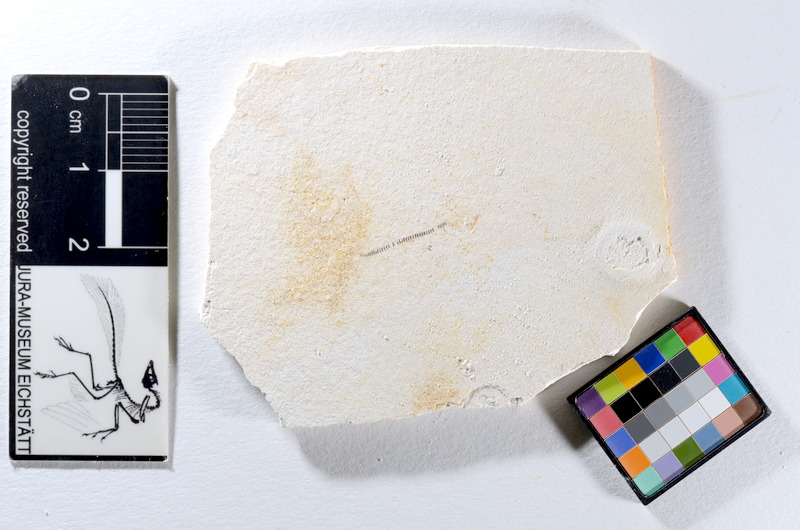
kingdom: Animalia
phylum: Chordata
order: Salmoniformes
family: Orthogonikleithridae
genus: Orthogonikleithrus
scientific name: Orthogonikleithrus hoelli
